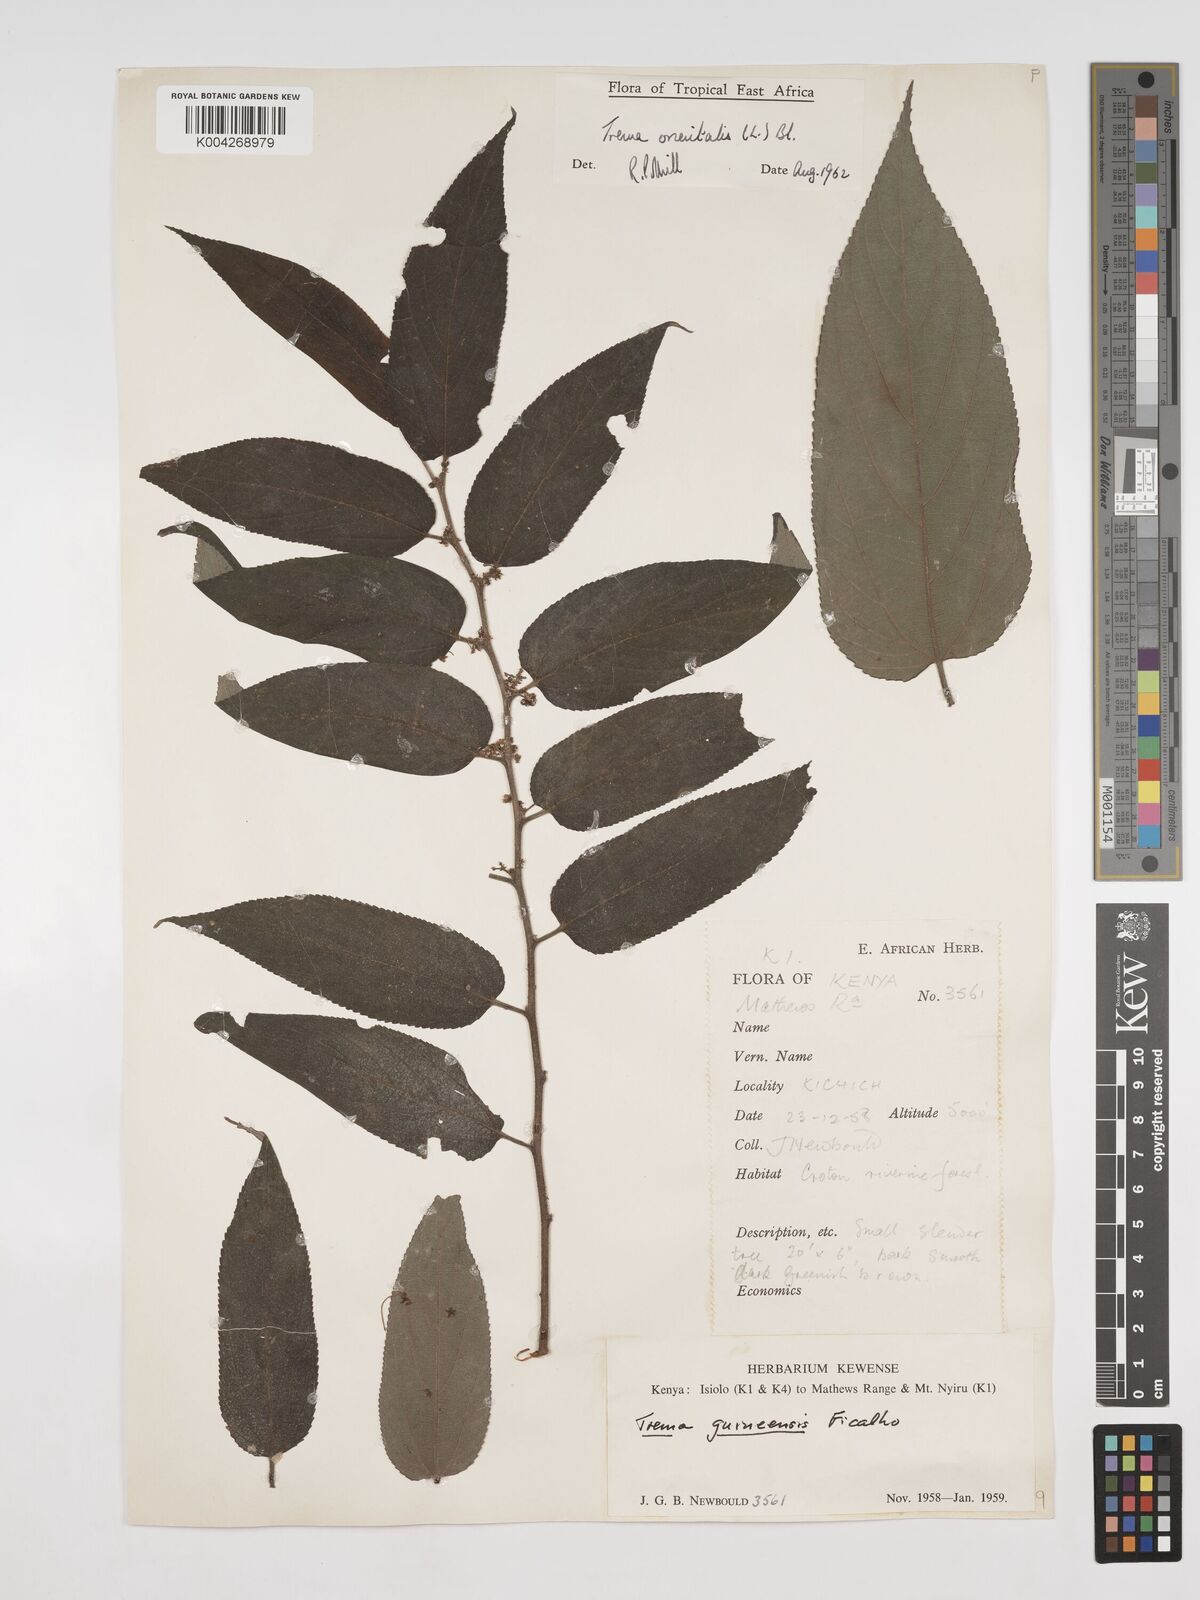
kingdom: Plantae
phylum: Tracheophyta
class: Magnoliopsida
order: Rosales
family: Cannabaceae
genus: Trema
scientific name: Trema orientale
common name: Indian charcoal tree
